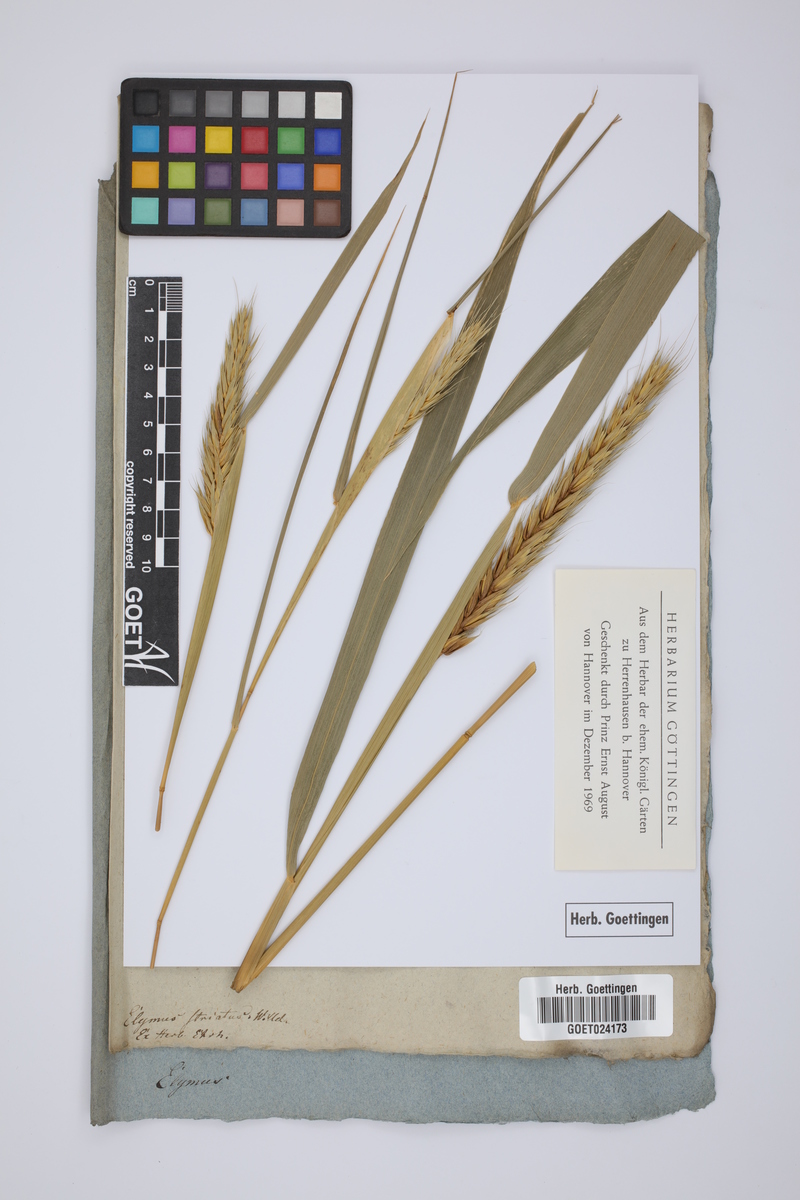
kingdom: Plantae
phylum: Tracheophyta
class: Liliopsida
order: Poales
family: Poaceae
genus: Elymus
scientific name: Elymus virginicus
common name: Common eastern wildrye
